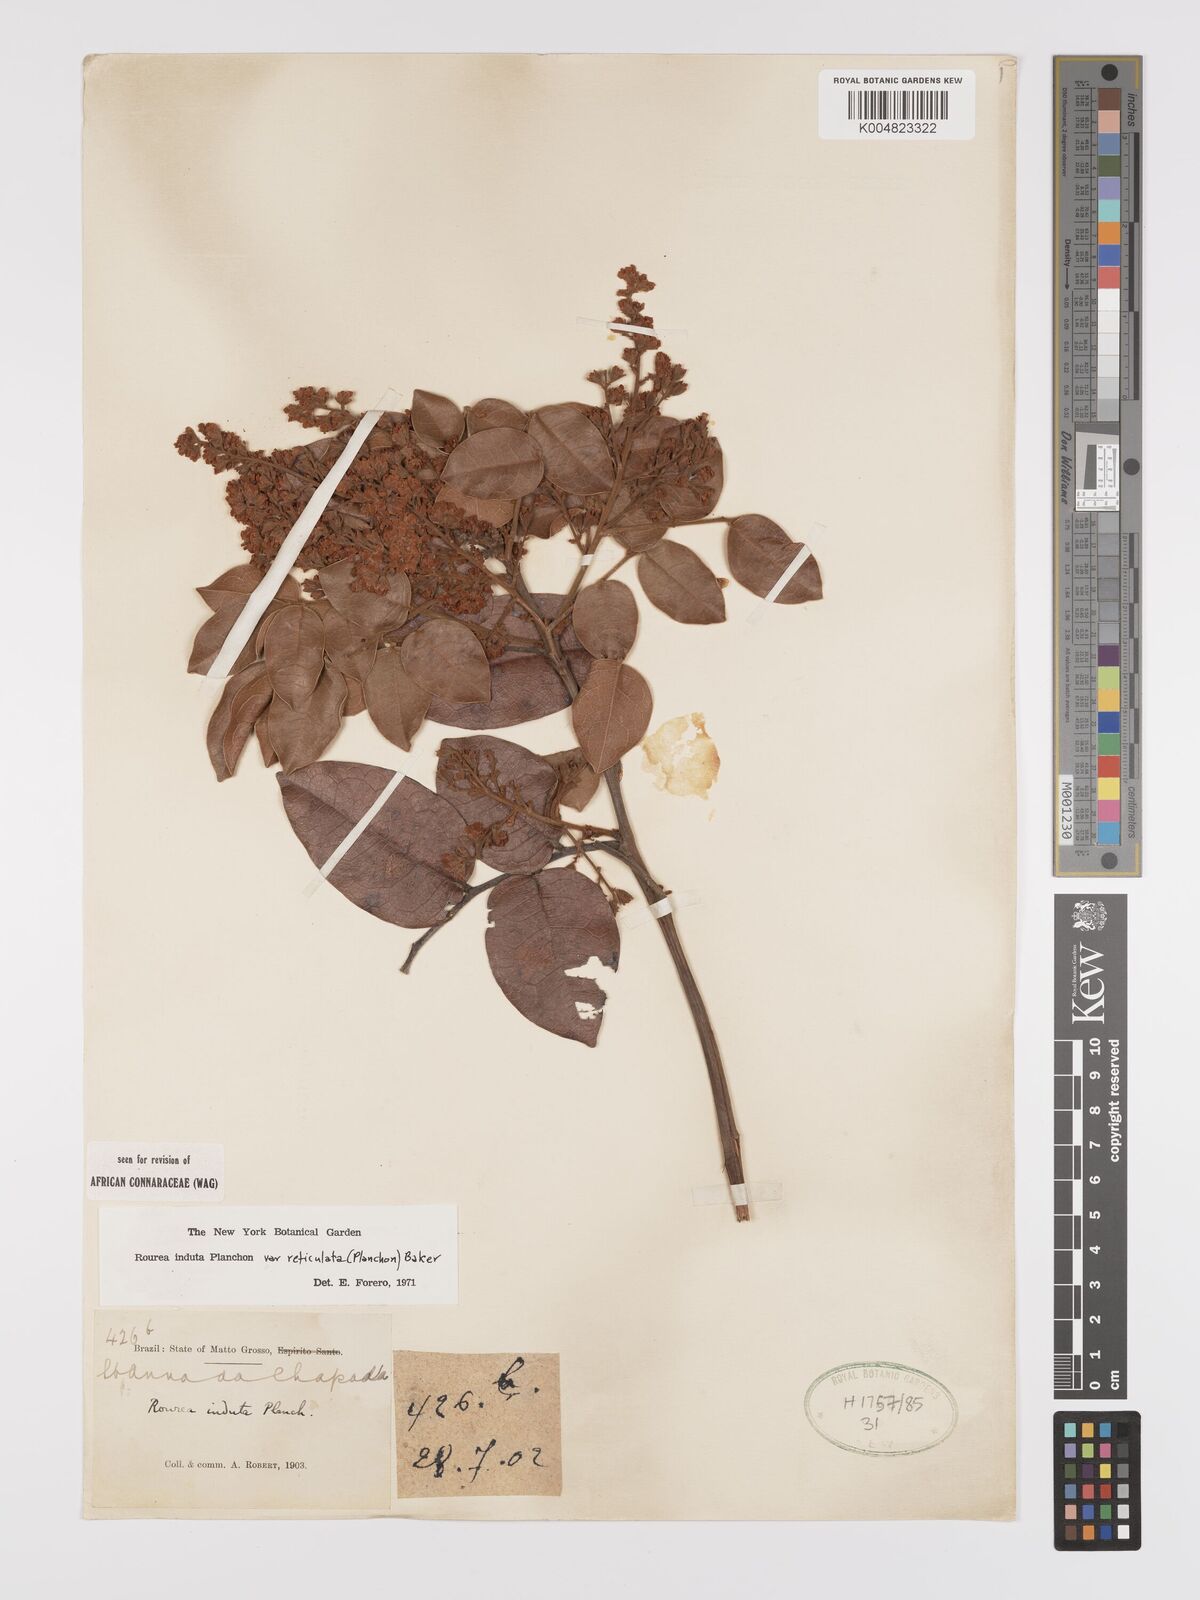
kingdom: Plantae
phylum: Tracheophyta
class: Magnoliopsida
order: Oxalidales
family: Connaraceae
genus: Rourea
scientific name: Rourea induta
